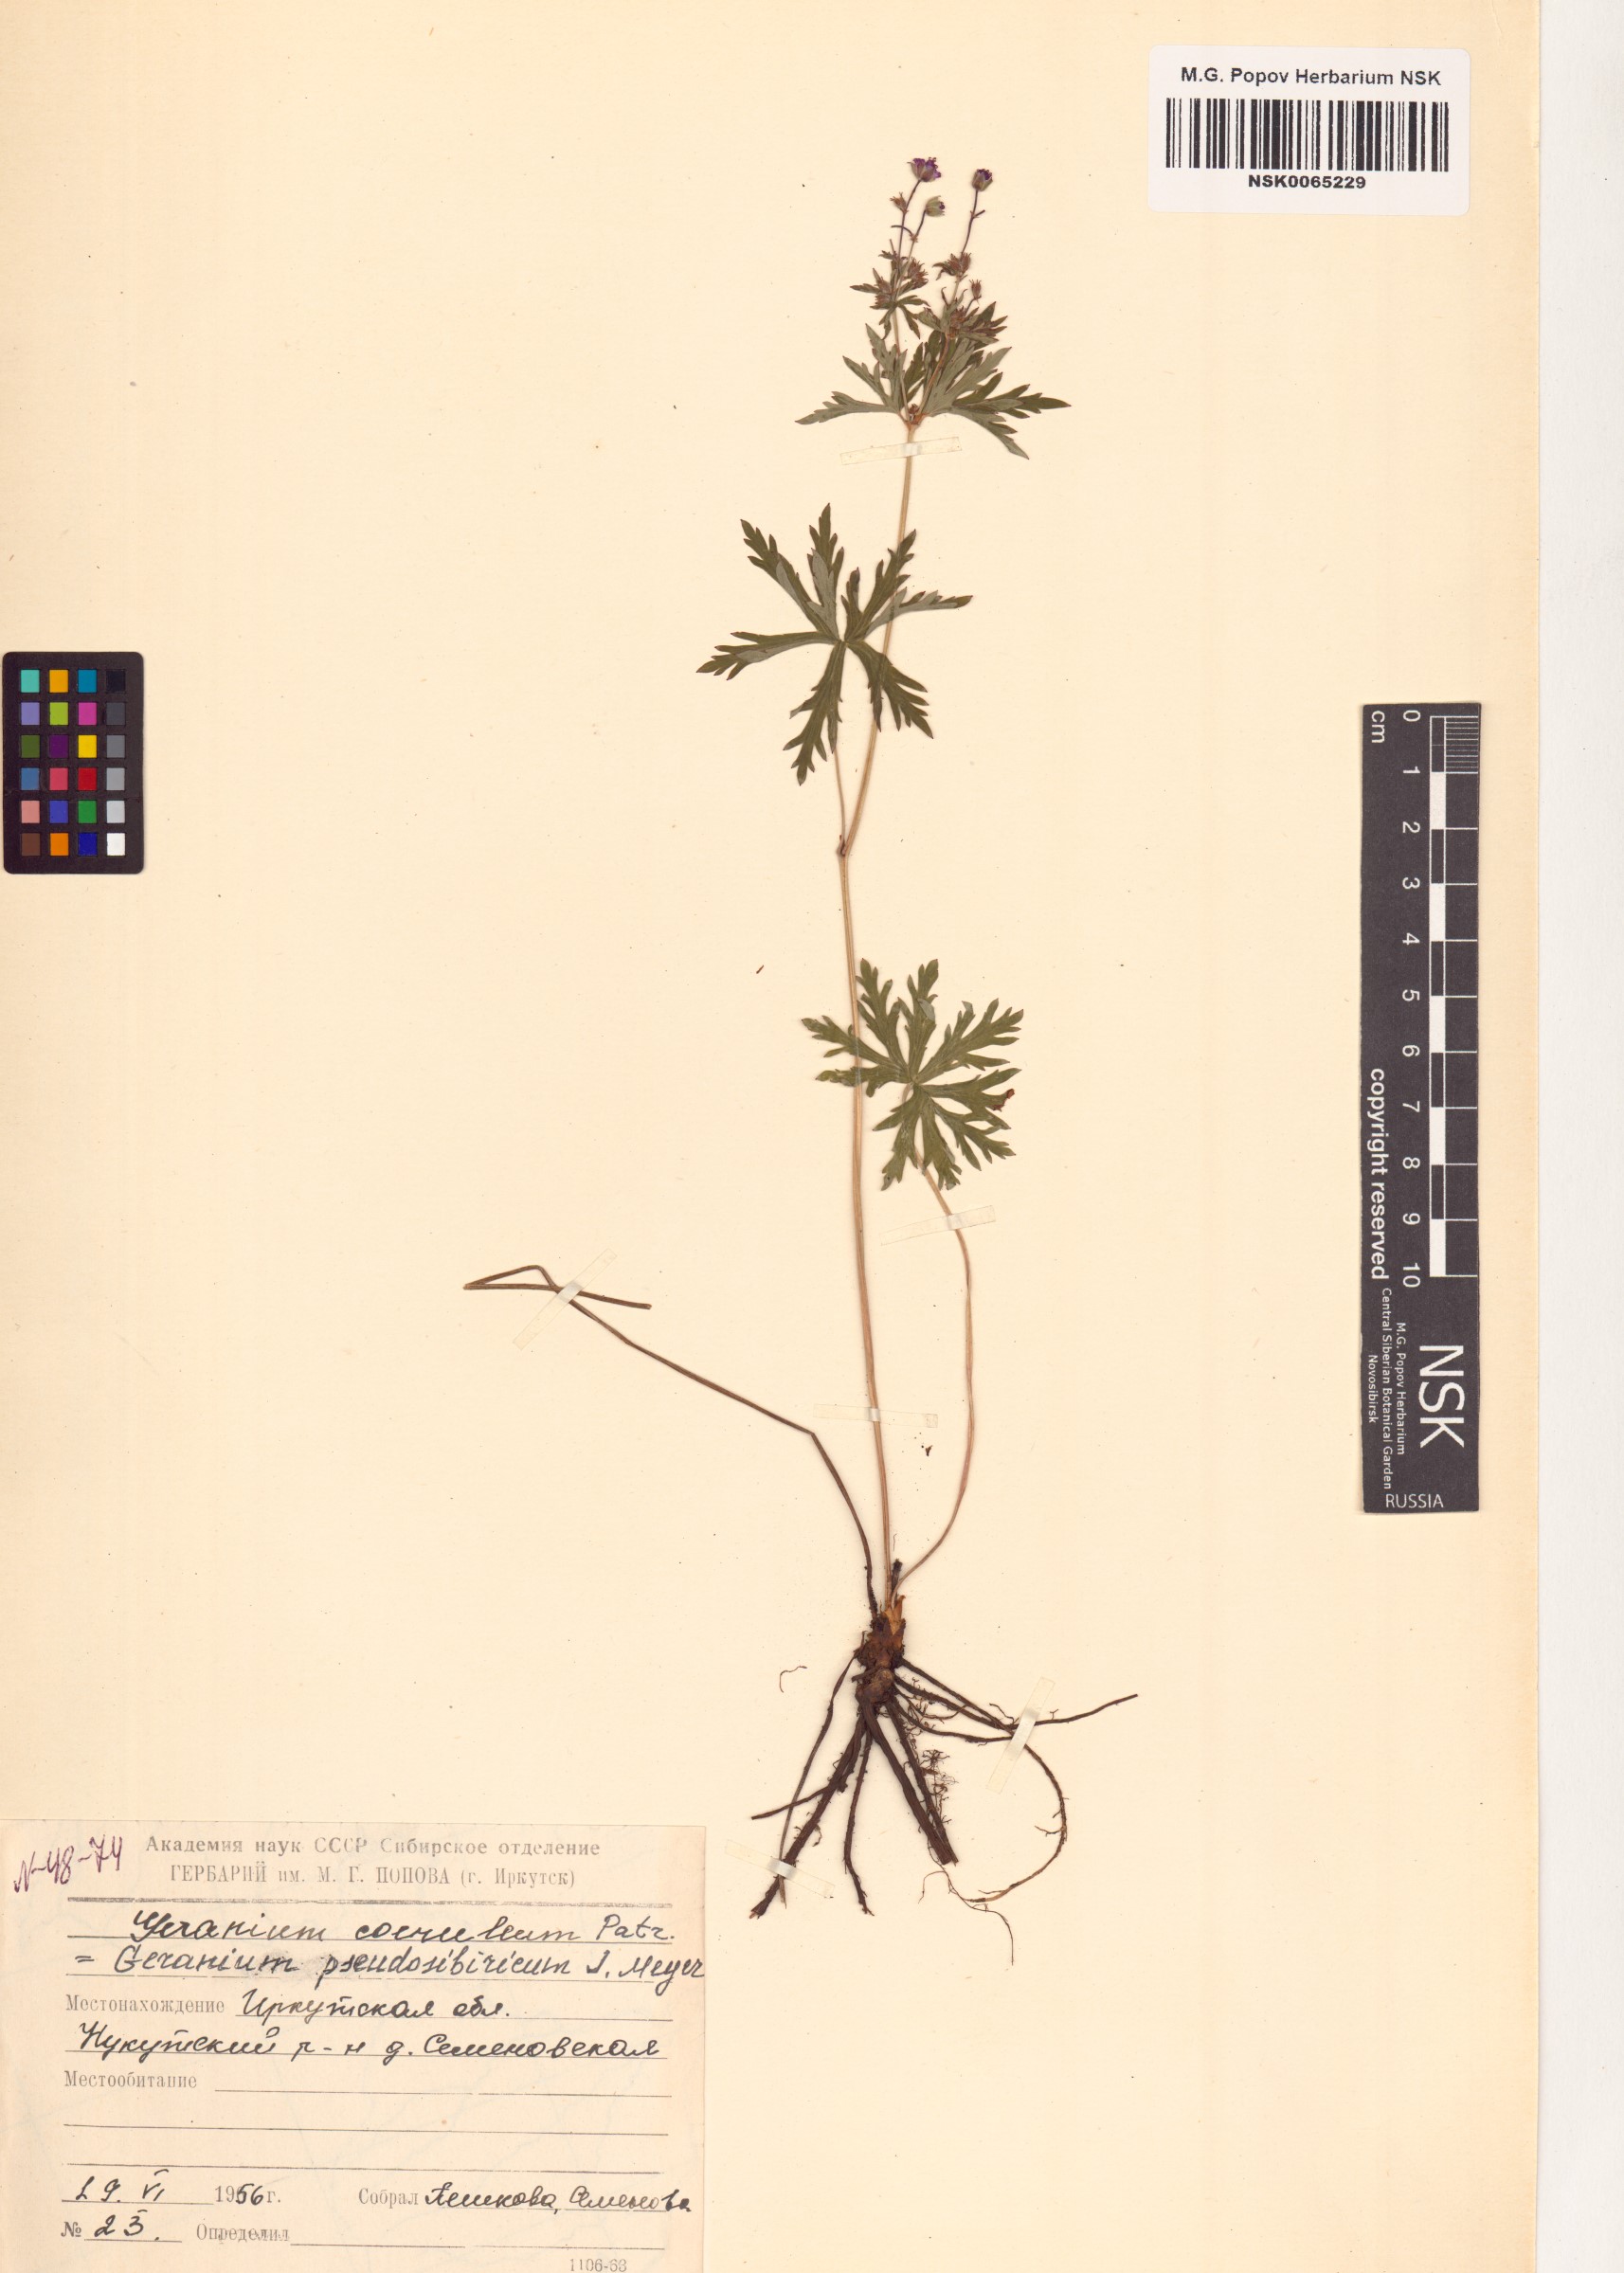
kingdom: Plantae
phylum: Tracheophyta
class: Magnoliopsida
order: Geraniales
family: Geraniaceae
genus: Geranium
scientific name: Geranium pseudosibiricum
